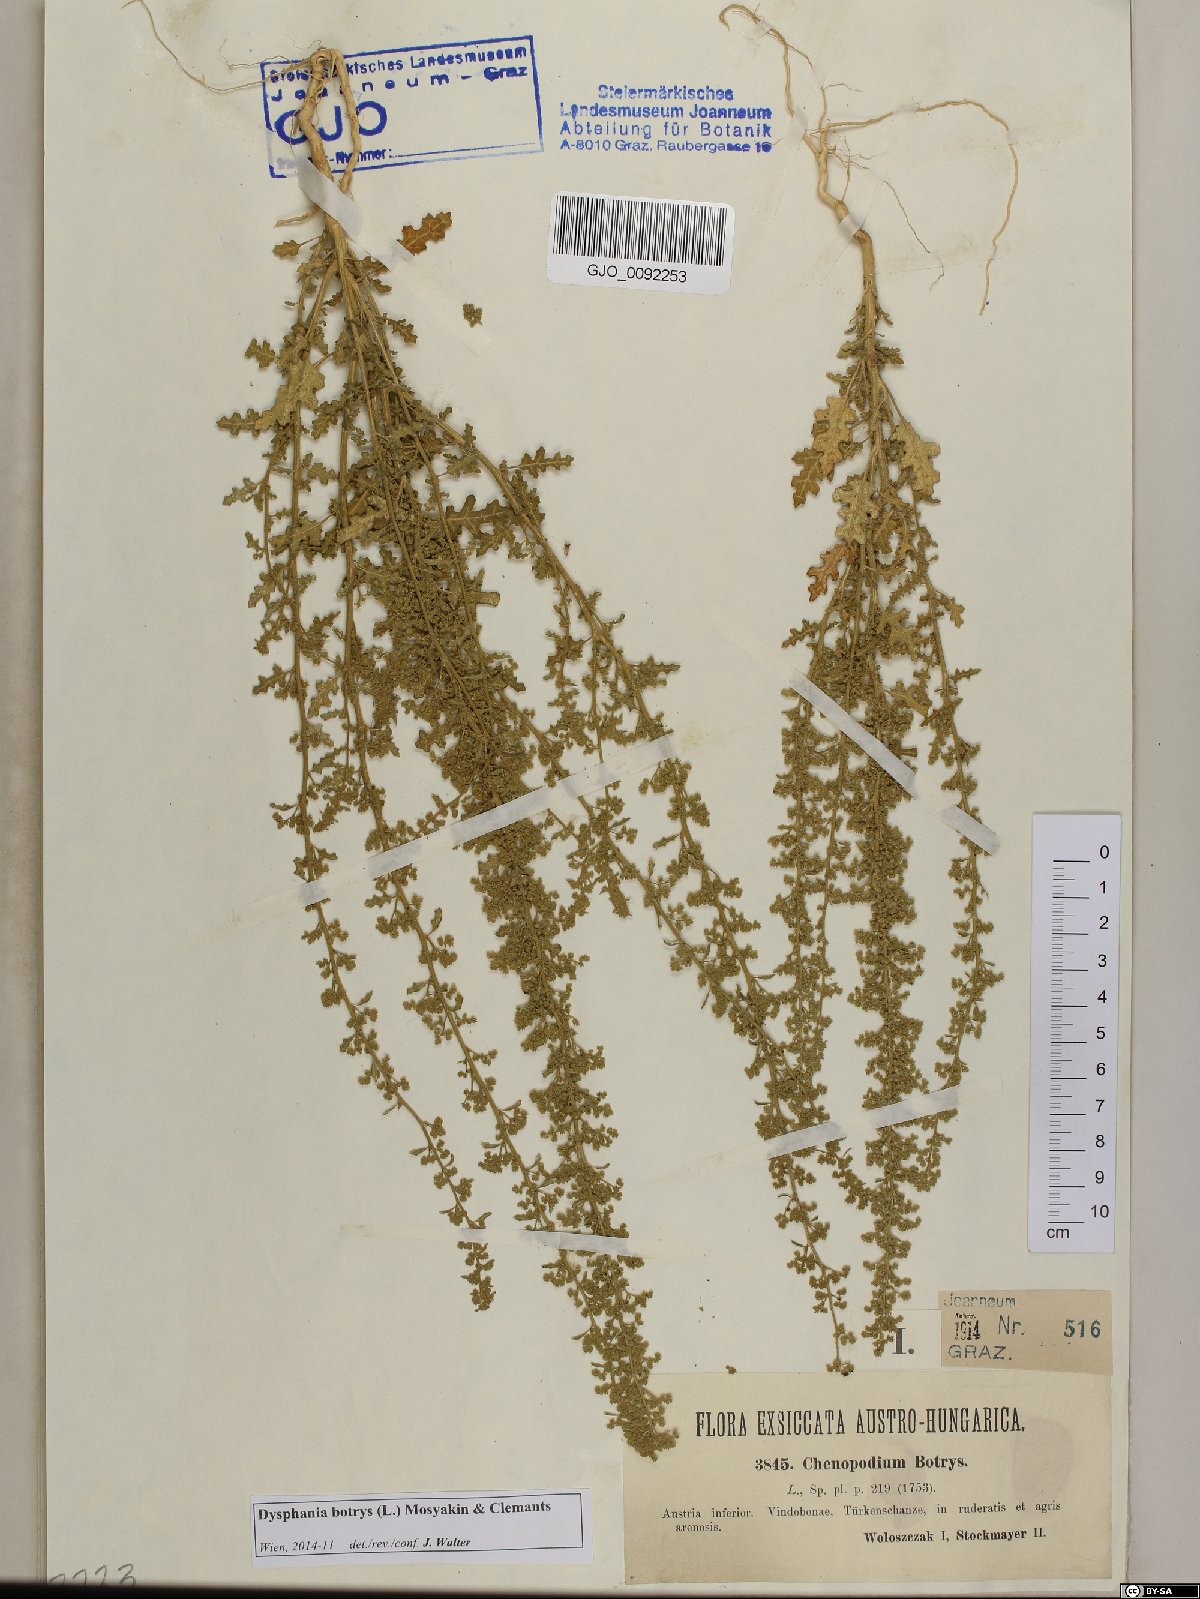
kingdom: Plantae
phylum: Tracheophyta
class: Magnoliopsida
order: Caryophyllales
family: Amaranthaceae
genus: Dysphania
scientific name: Dysphania botrys
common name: Feather-geranium
